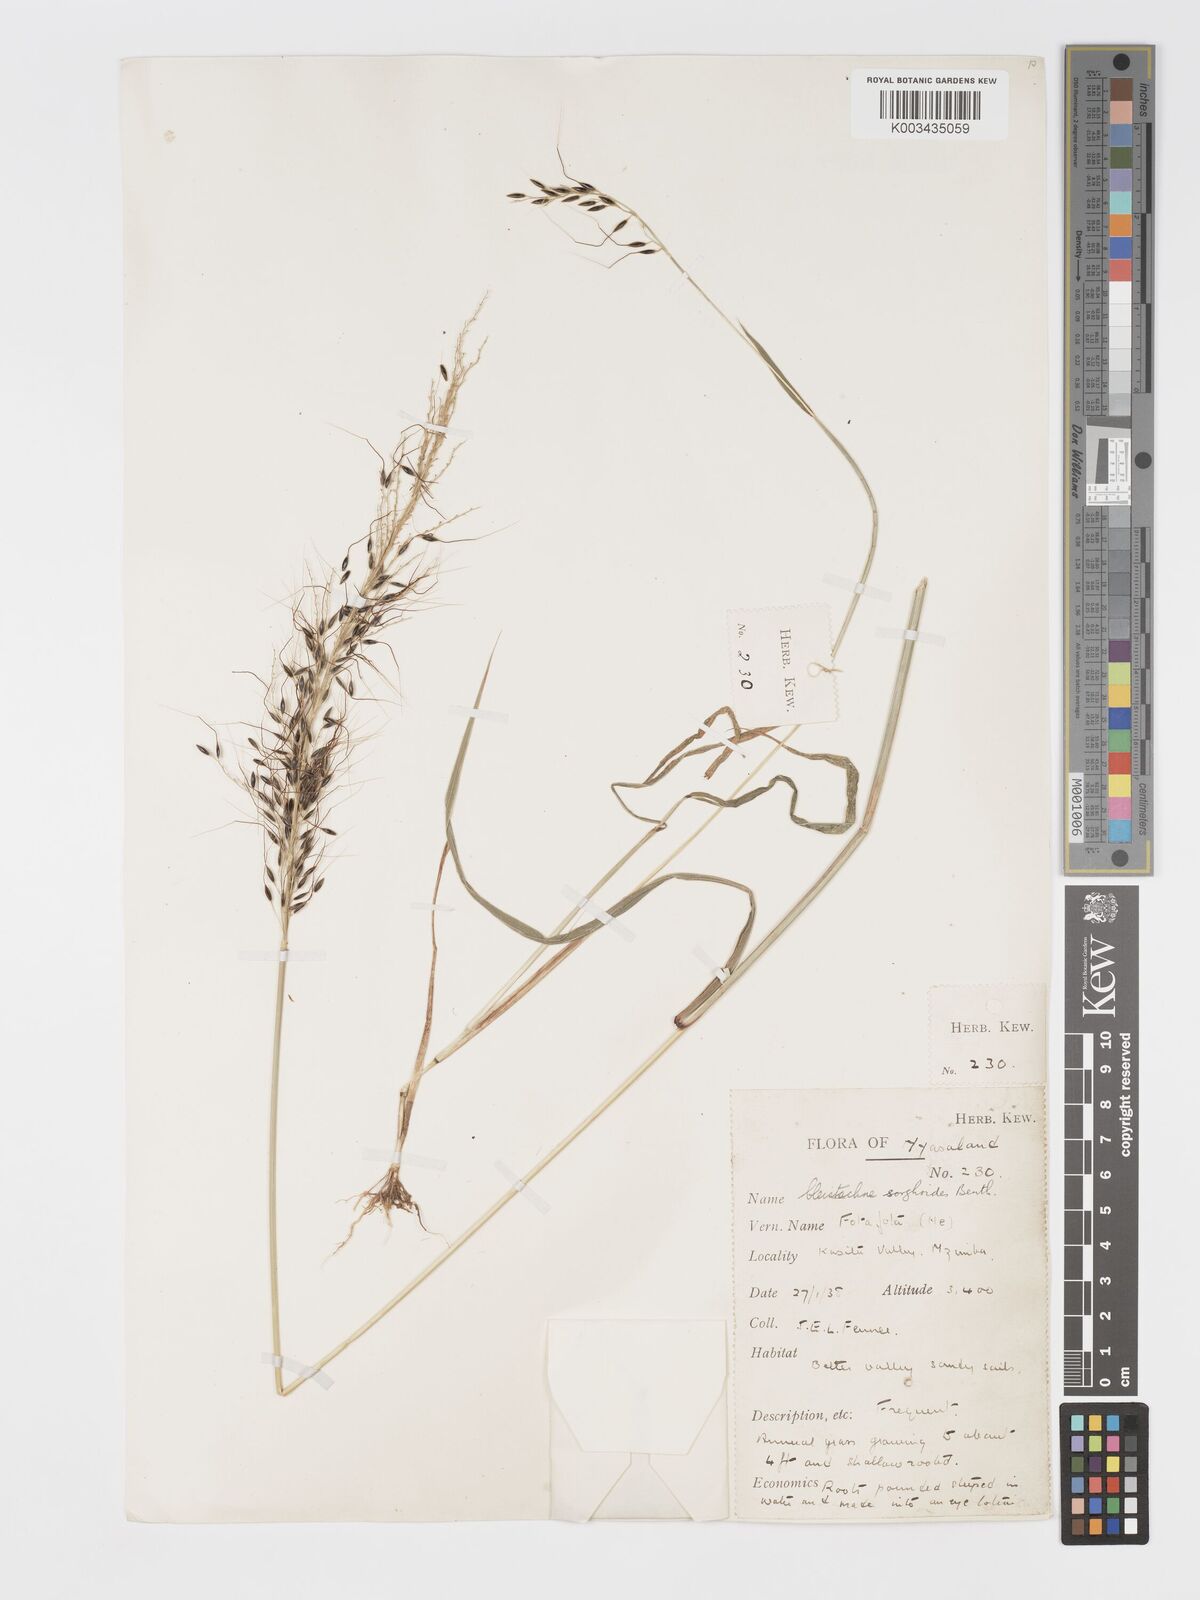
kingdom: Plantae
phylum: Tracheophyta
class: Liliopsida
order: Poales
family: Poaceae
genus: Cleistachne
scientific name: Cleistachne sorghoides
